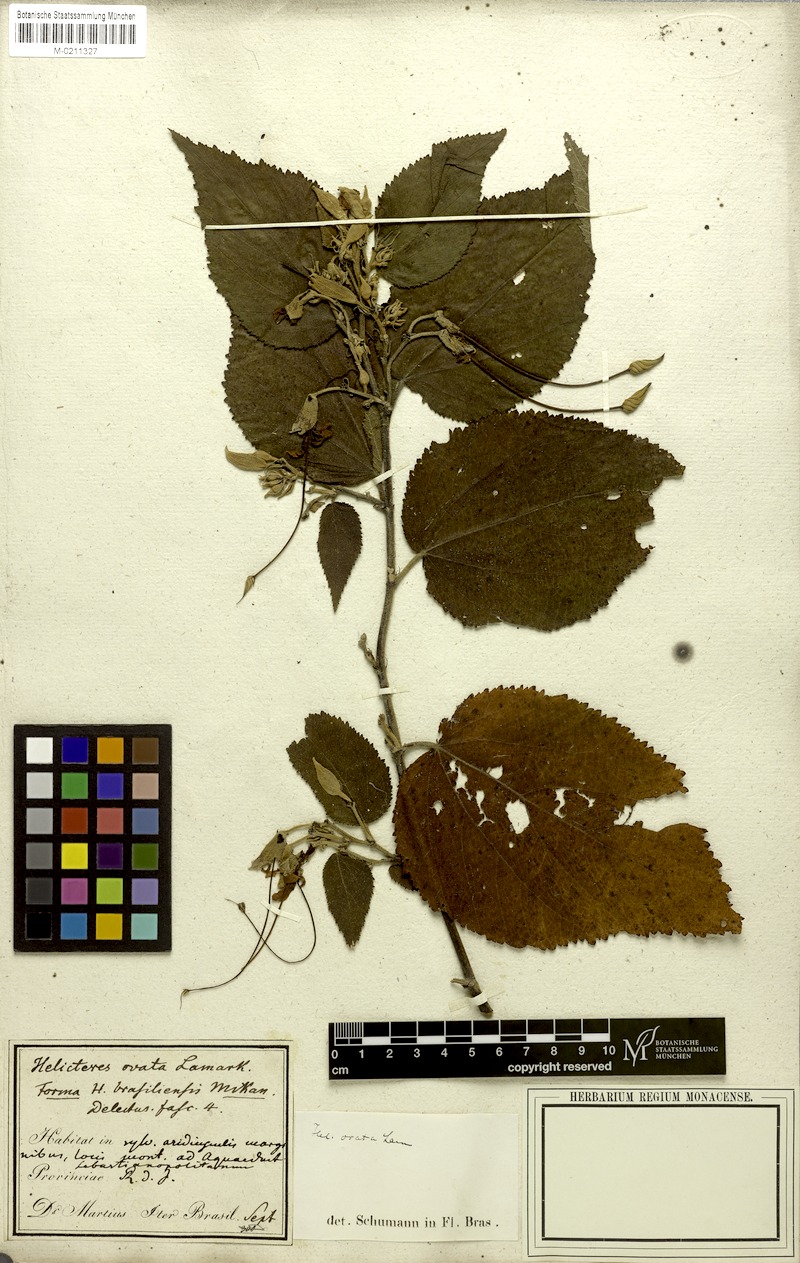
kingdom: Plantae
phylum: Tracheophyta
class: Magnoliopsida
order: Malvales
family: Malvaceae
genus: Helicteres
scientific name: Helicteres ovata
